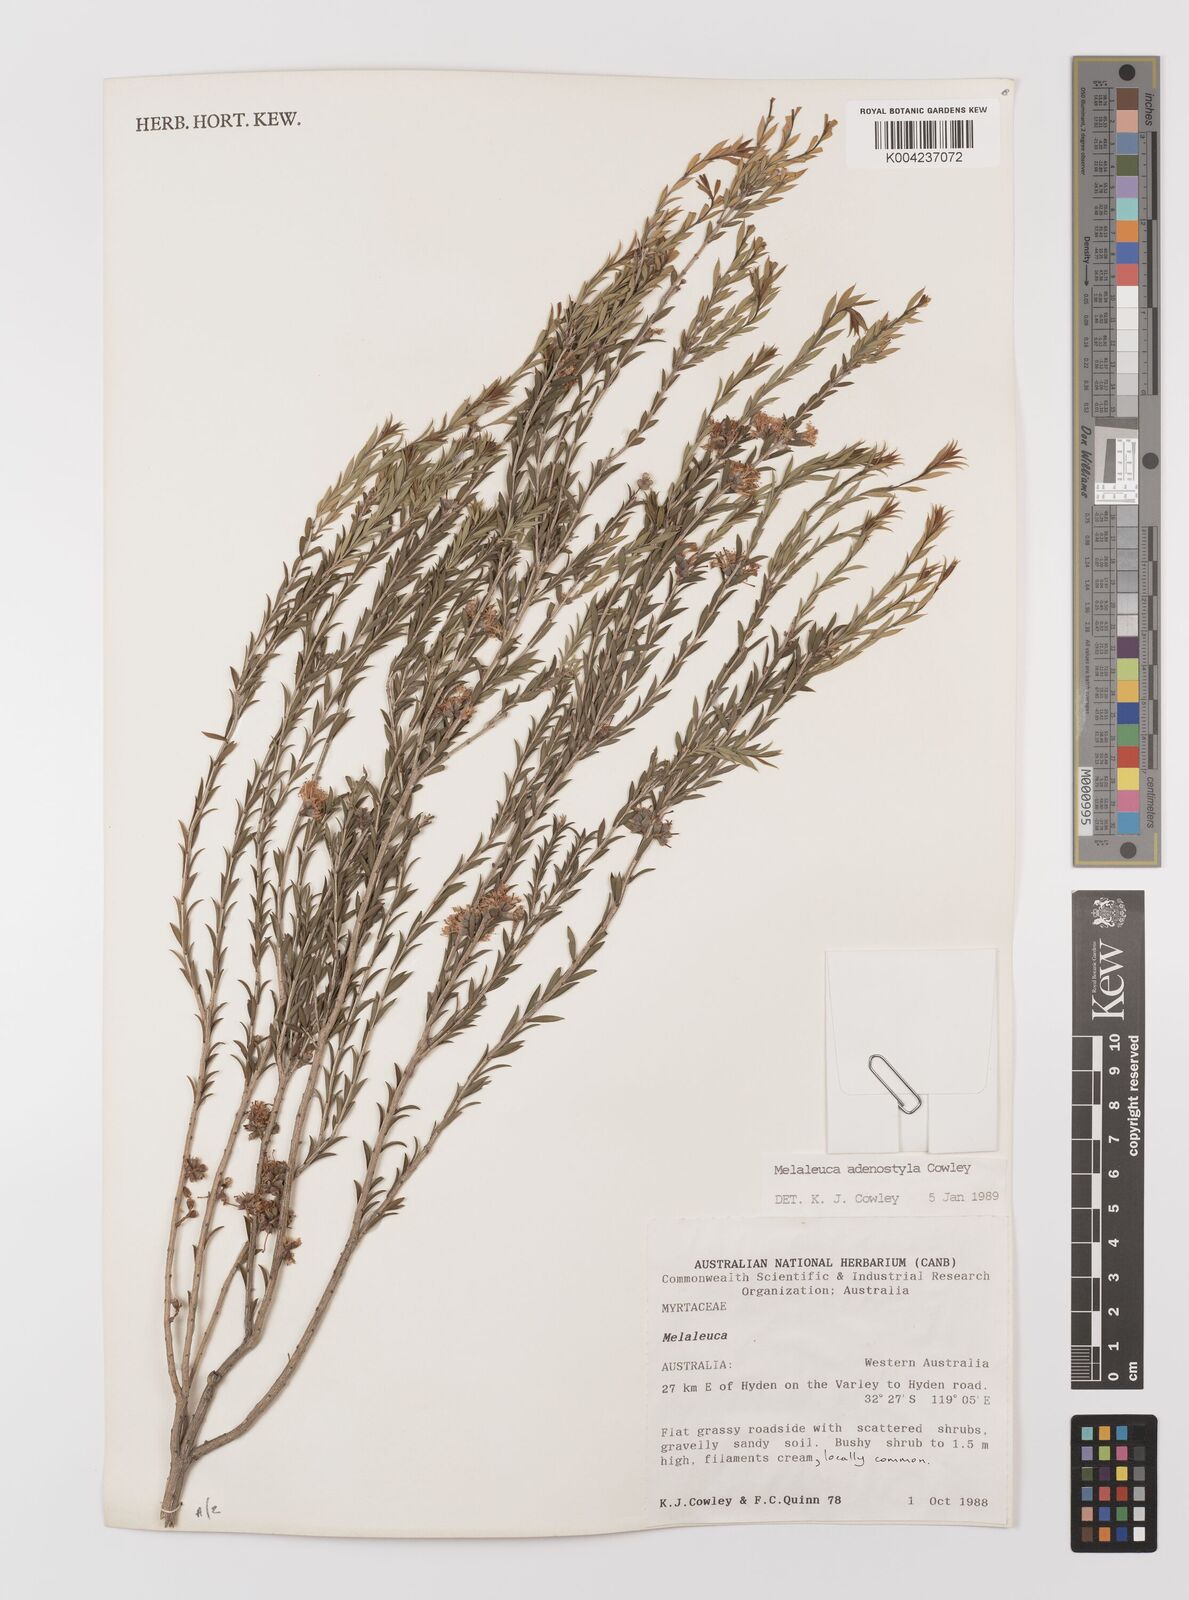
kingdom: Plantae
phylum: Tracheophyta
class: Magnoliopsida
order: Myrtales
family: Myrtaceae
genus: Melaleuca
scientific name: Melaleuca adenostyla
